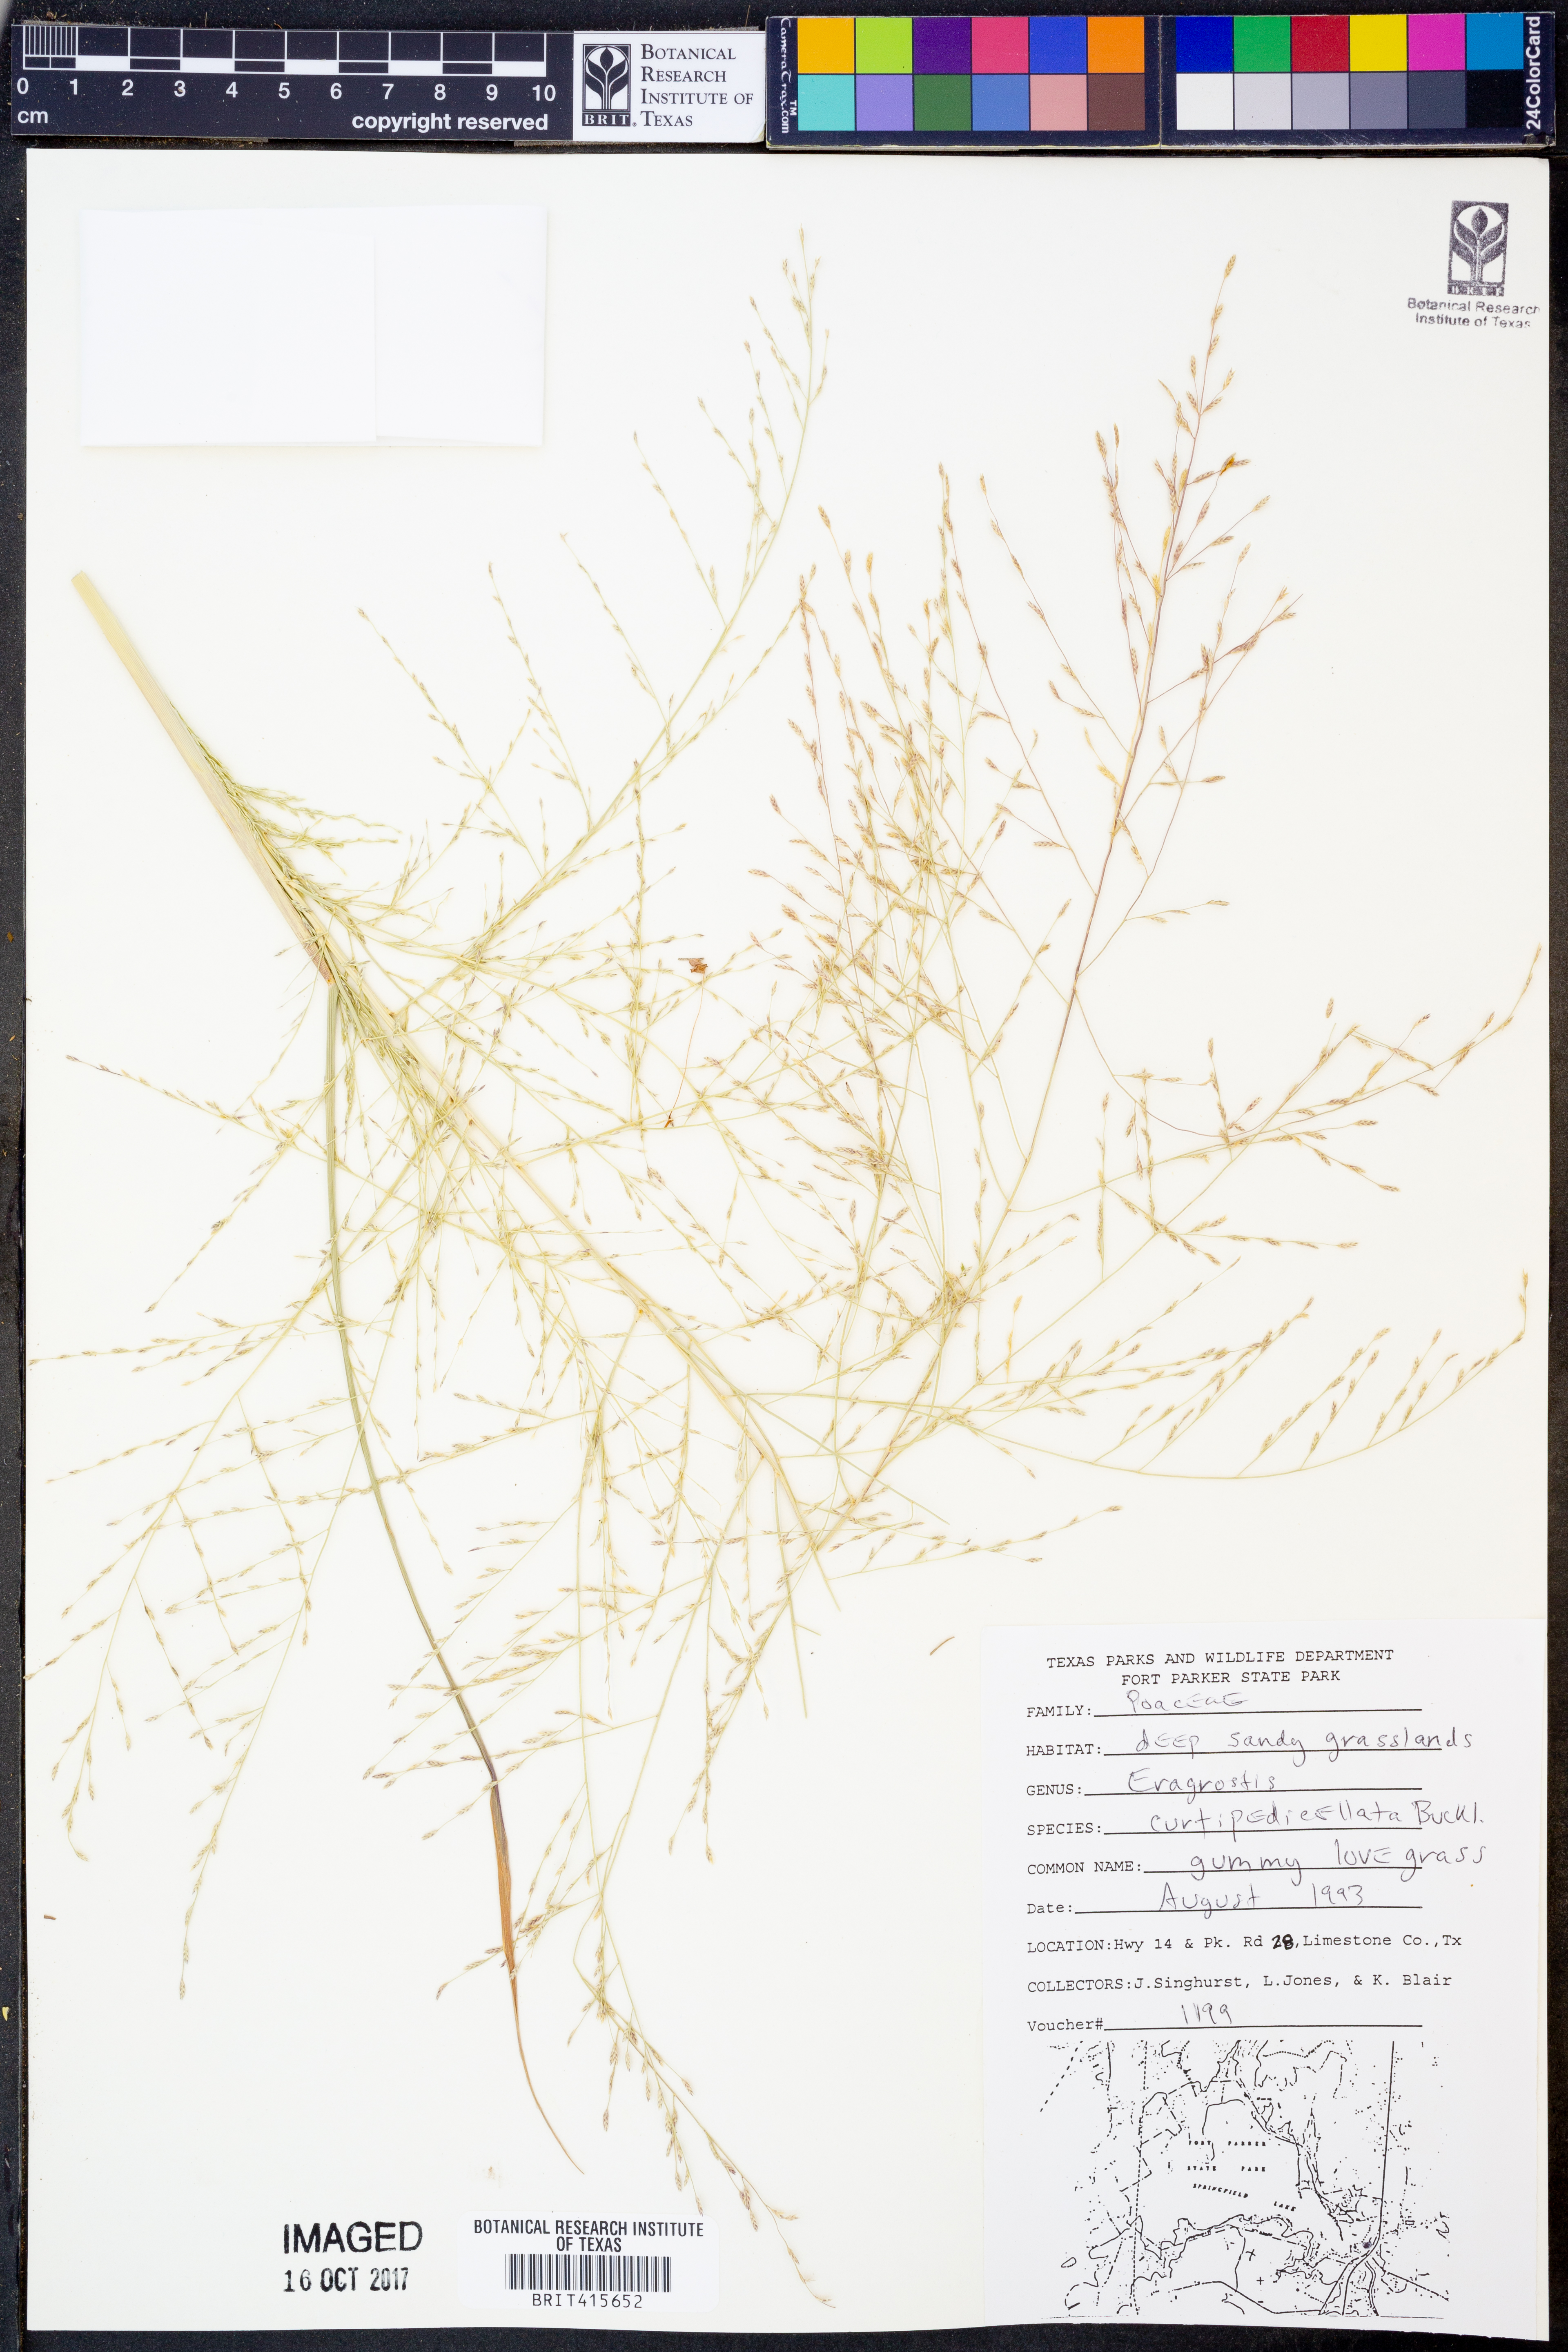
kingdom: Plantae
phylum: Tracheophyta
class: Liliopsida
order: Poales
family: Poaceae
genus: Eragrostis
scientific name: Eragrostis curtipedicellata
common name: Gummy love grass
